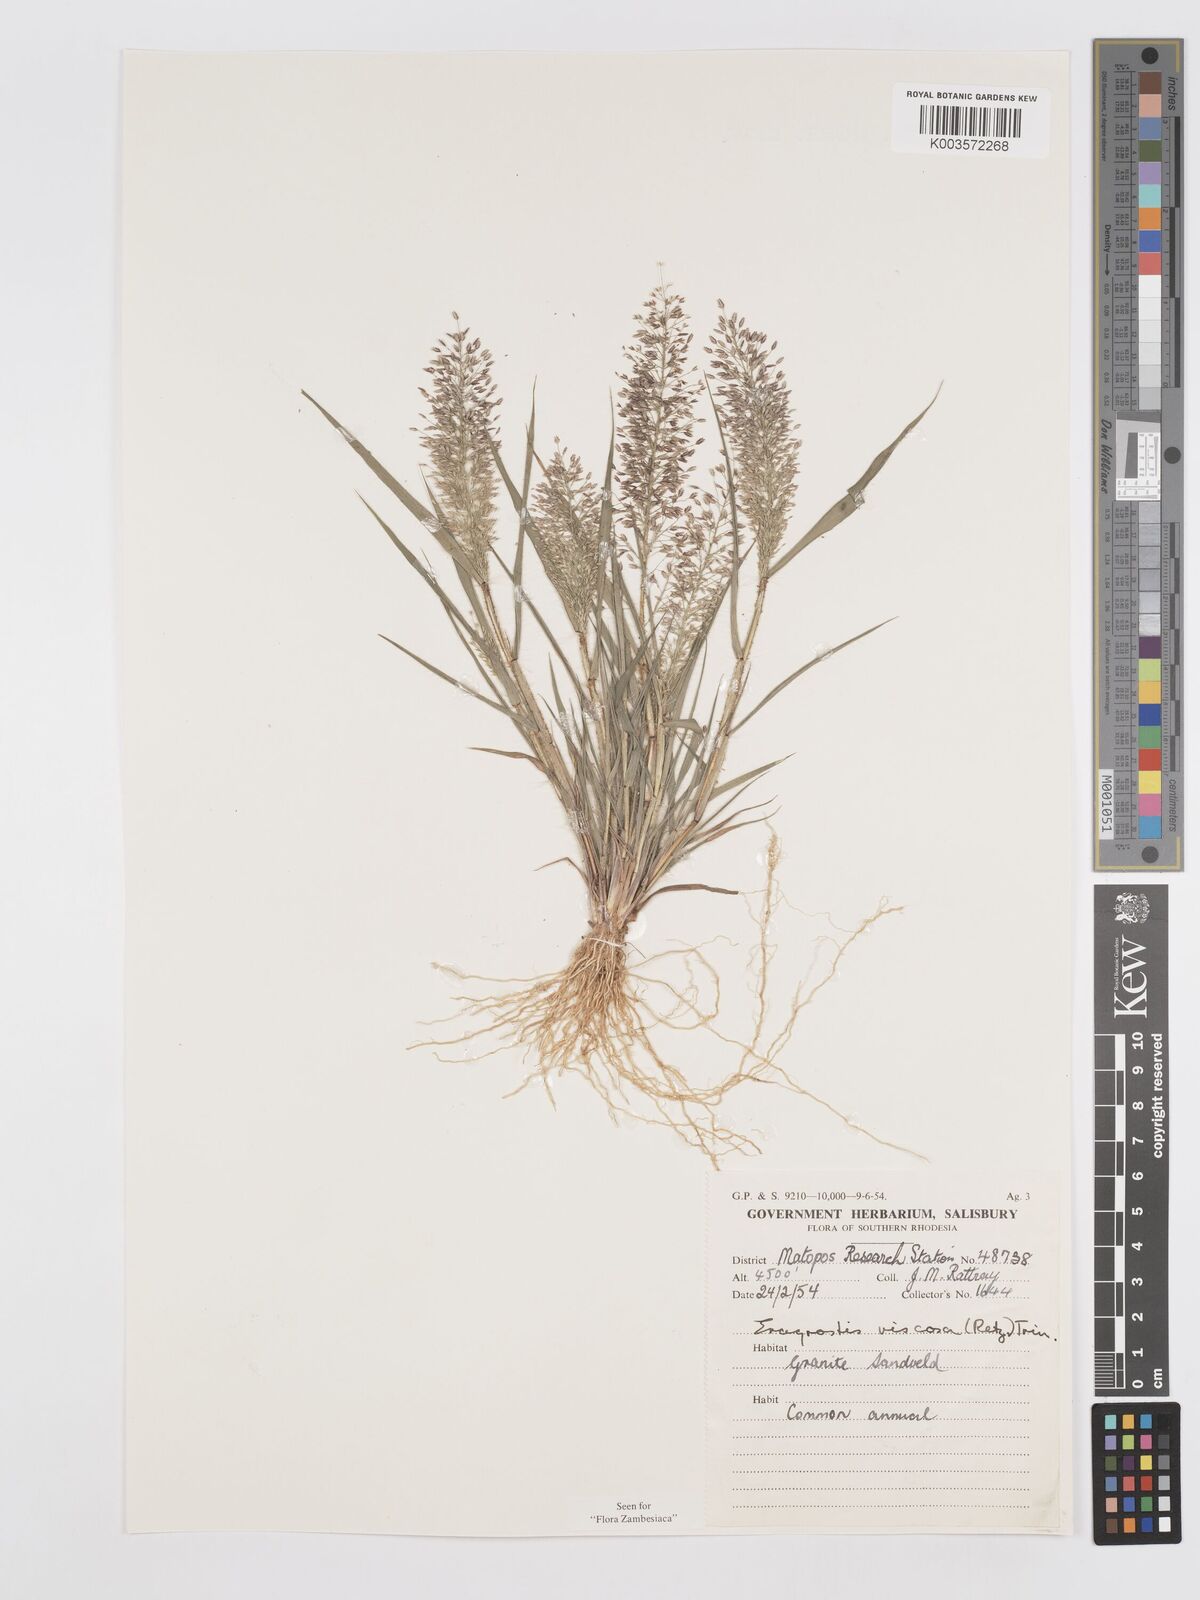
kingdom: Plantae
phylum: Tracheophyta
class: Liliopsida
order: Poales
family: Poaceae
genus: Eragrostis
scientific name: Eragrostis
